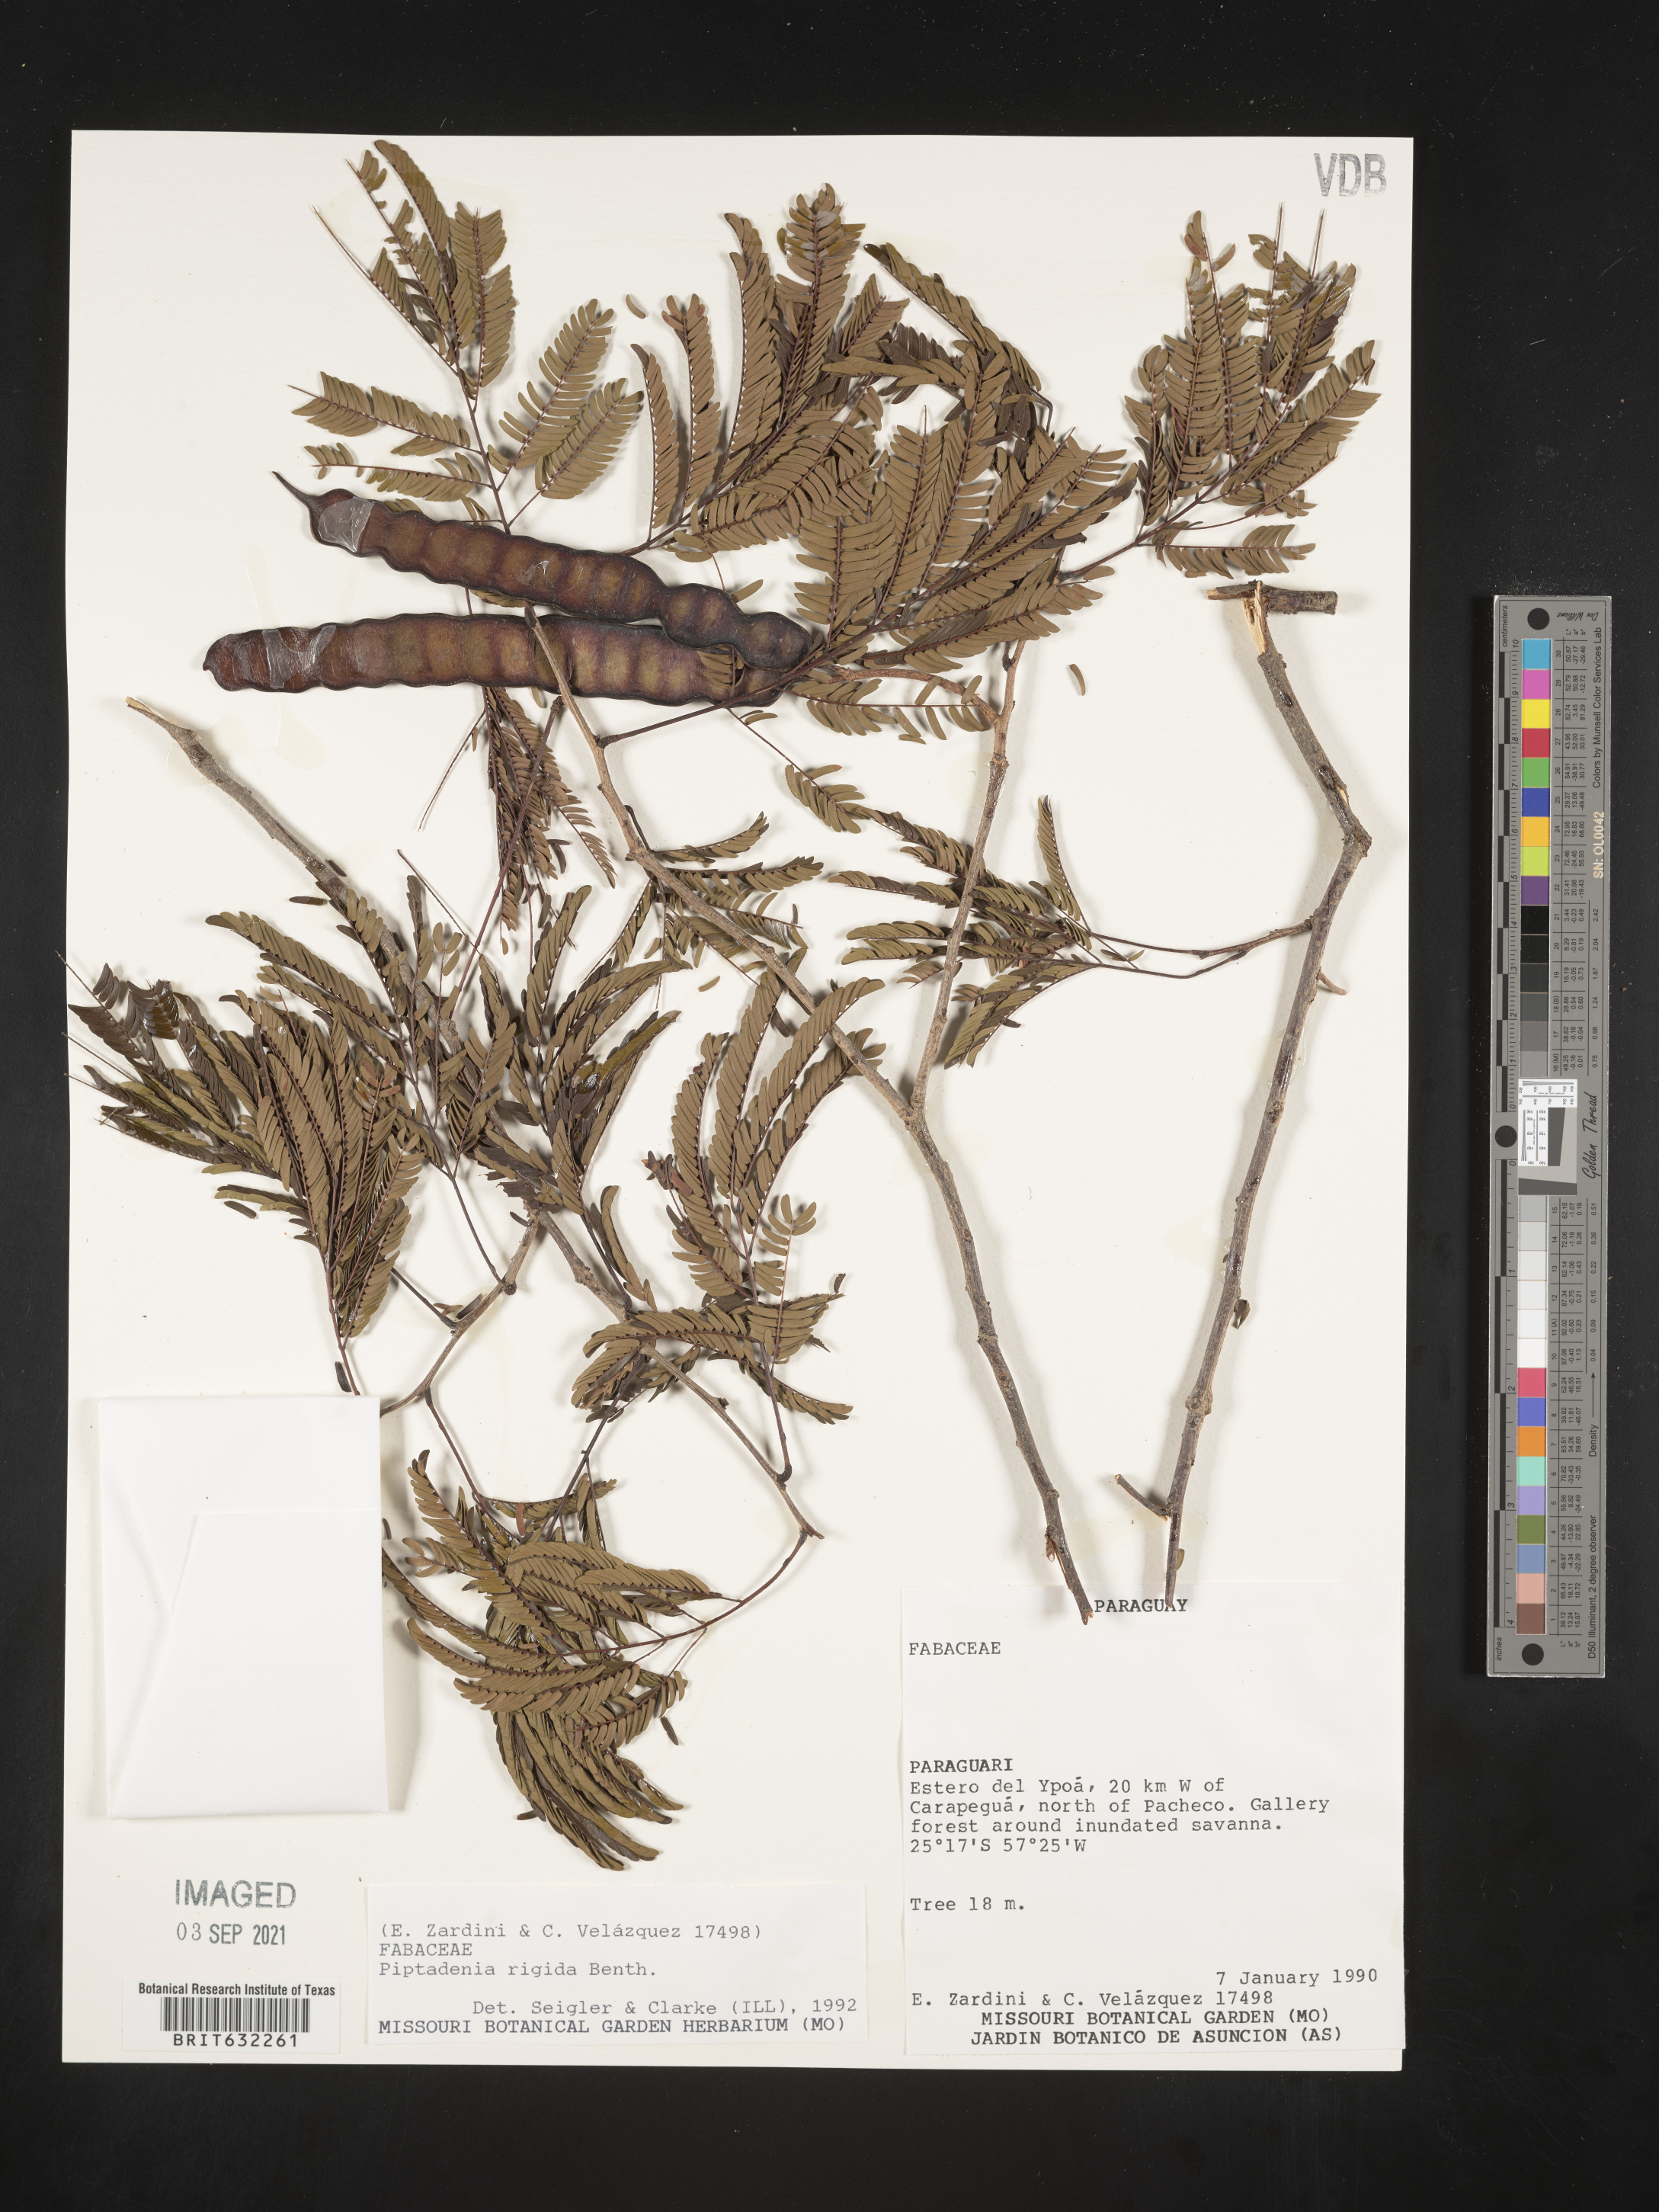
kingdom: Plantae
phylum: Tracheophyta
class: Magnoliopsida
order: Fabales
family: Fabaceae
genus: Piptadenia
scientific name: Piptadenia
